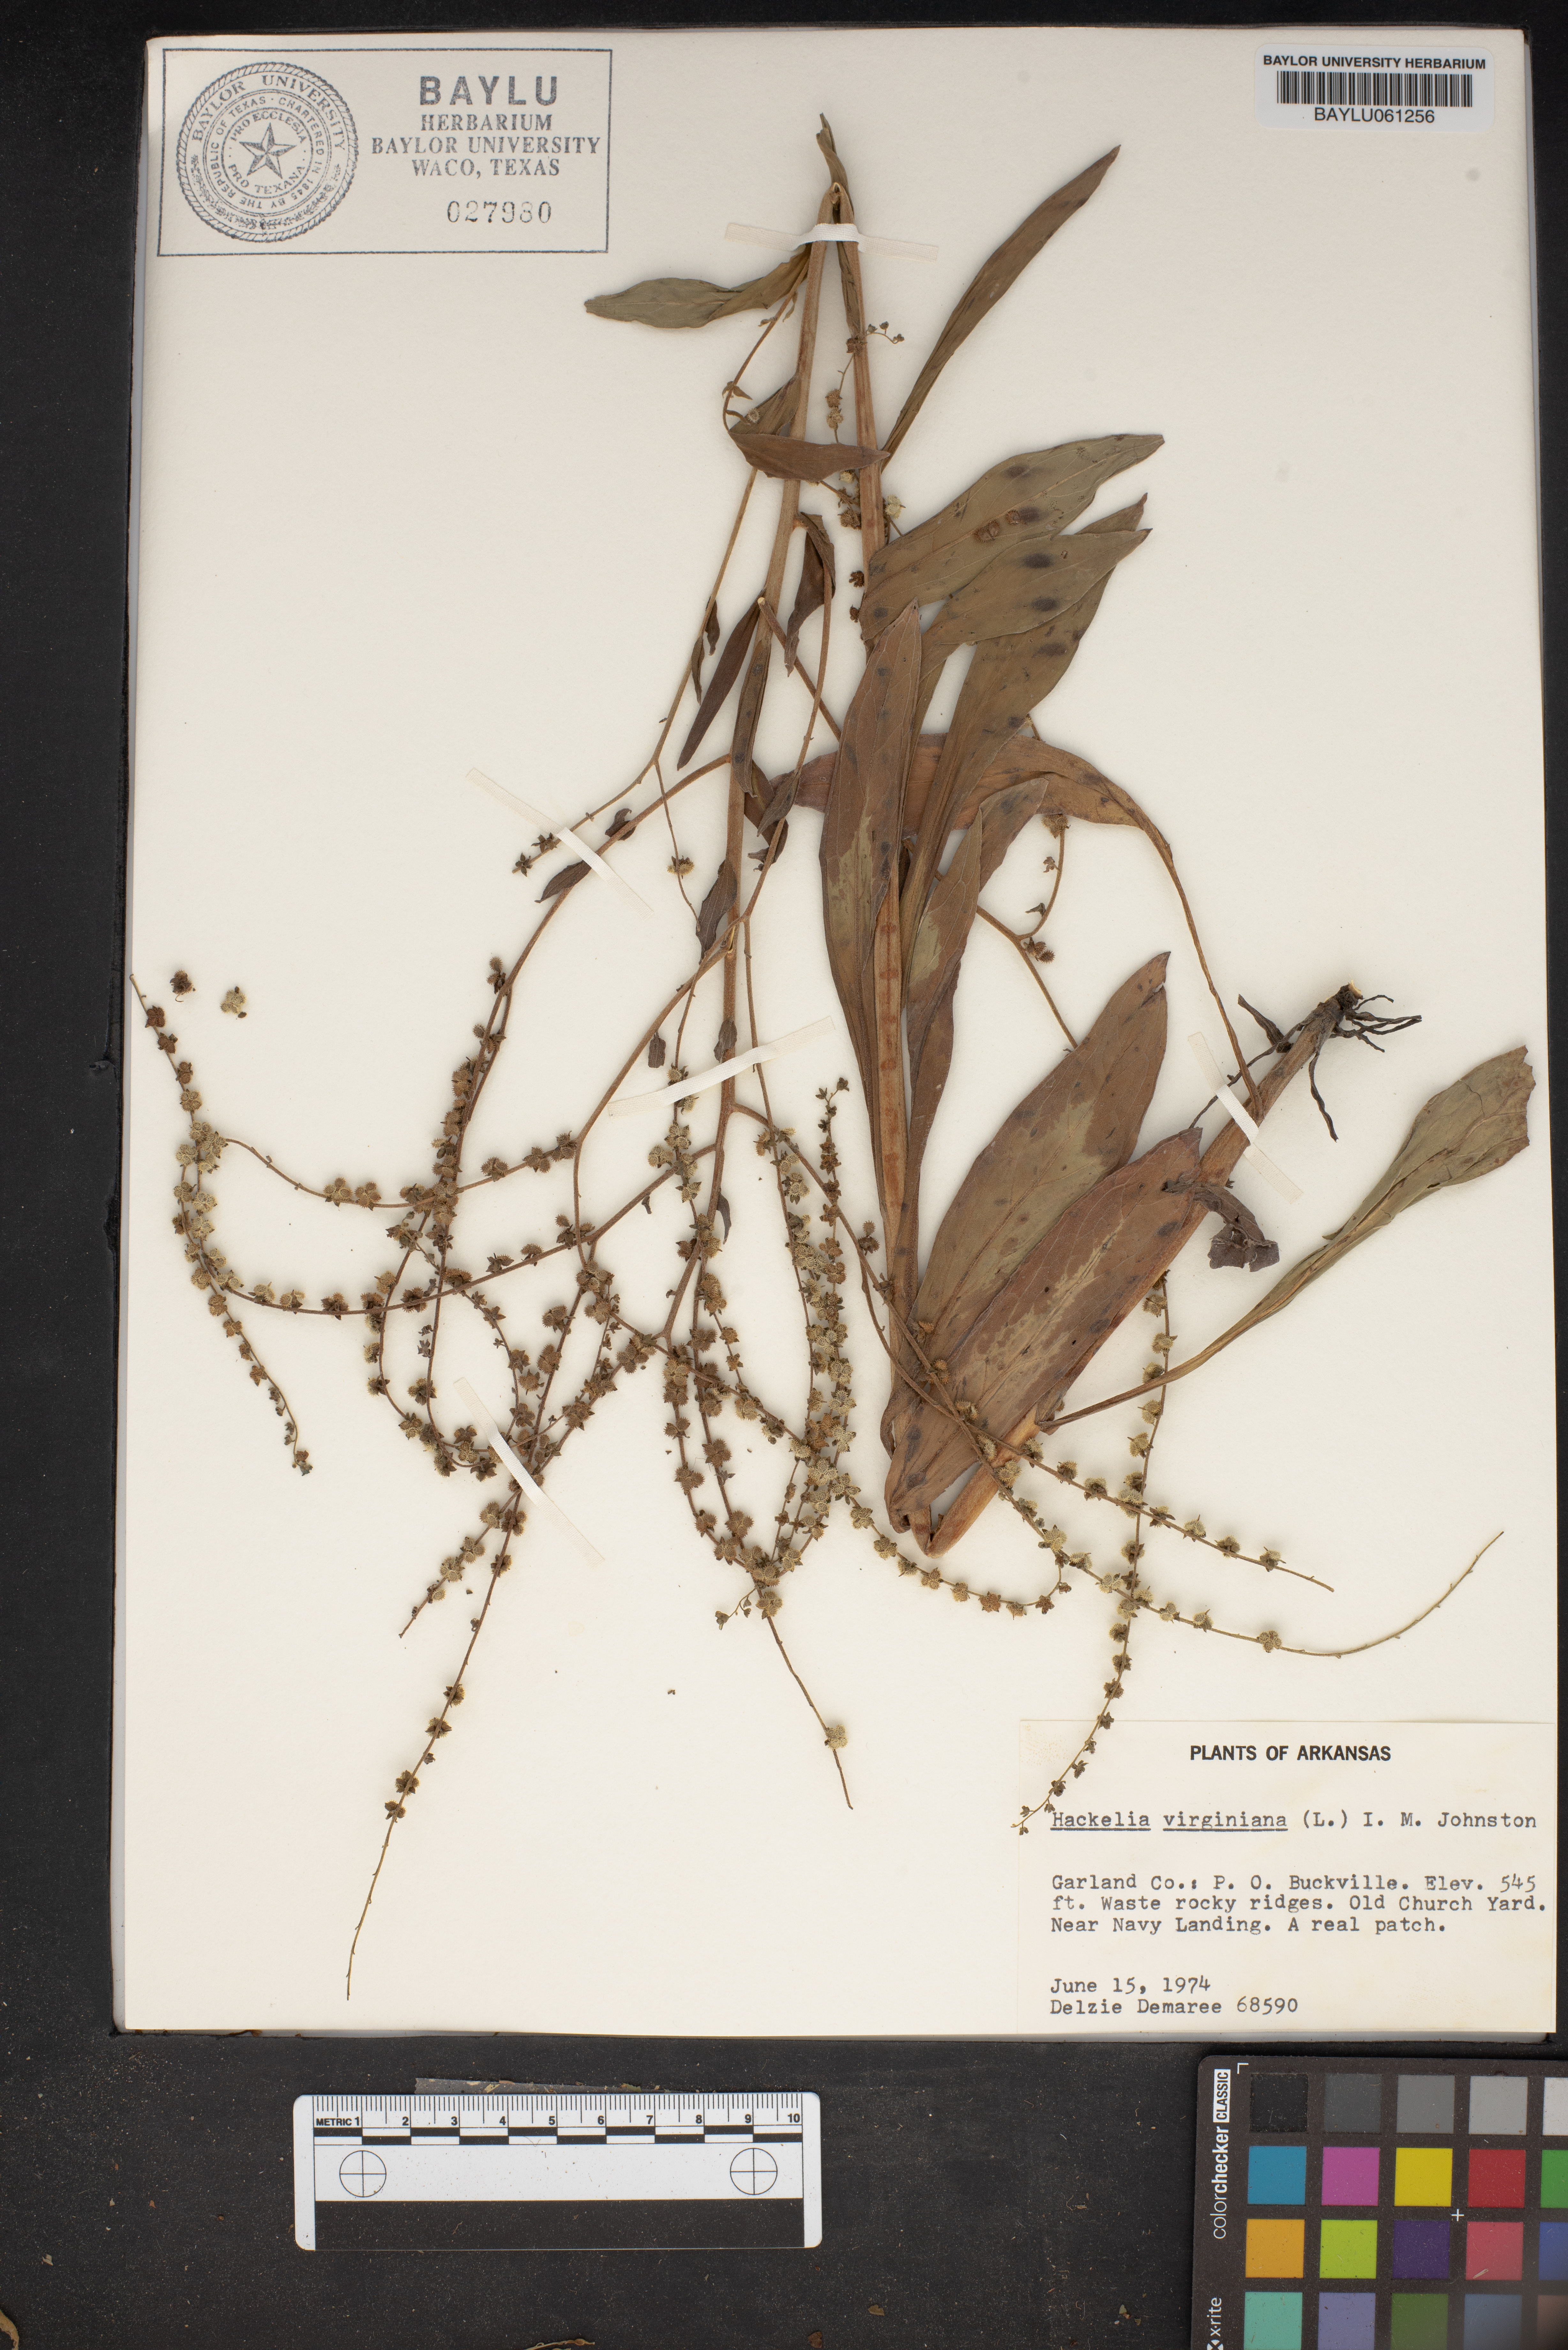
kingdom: Plantae
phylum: Tracheophyta
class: Magnoliopsida
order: Boraginales
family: Boraginaceae
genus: Hackelia
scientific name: Hackelia virginiana
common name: Beggar's-lice
